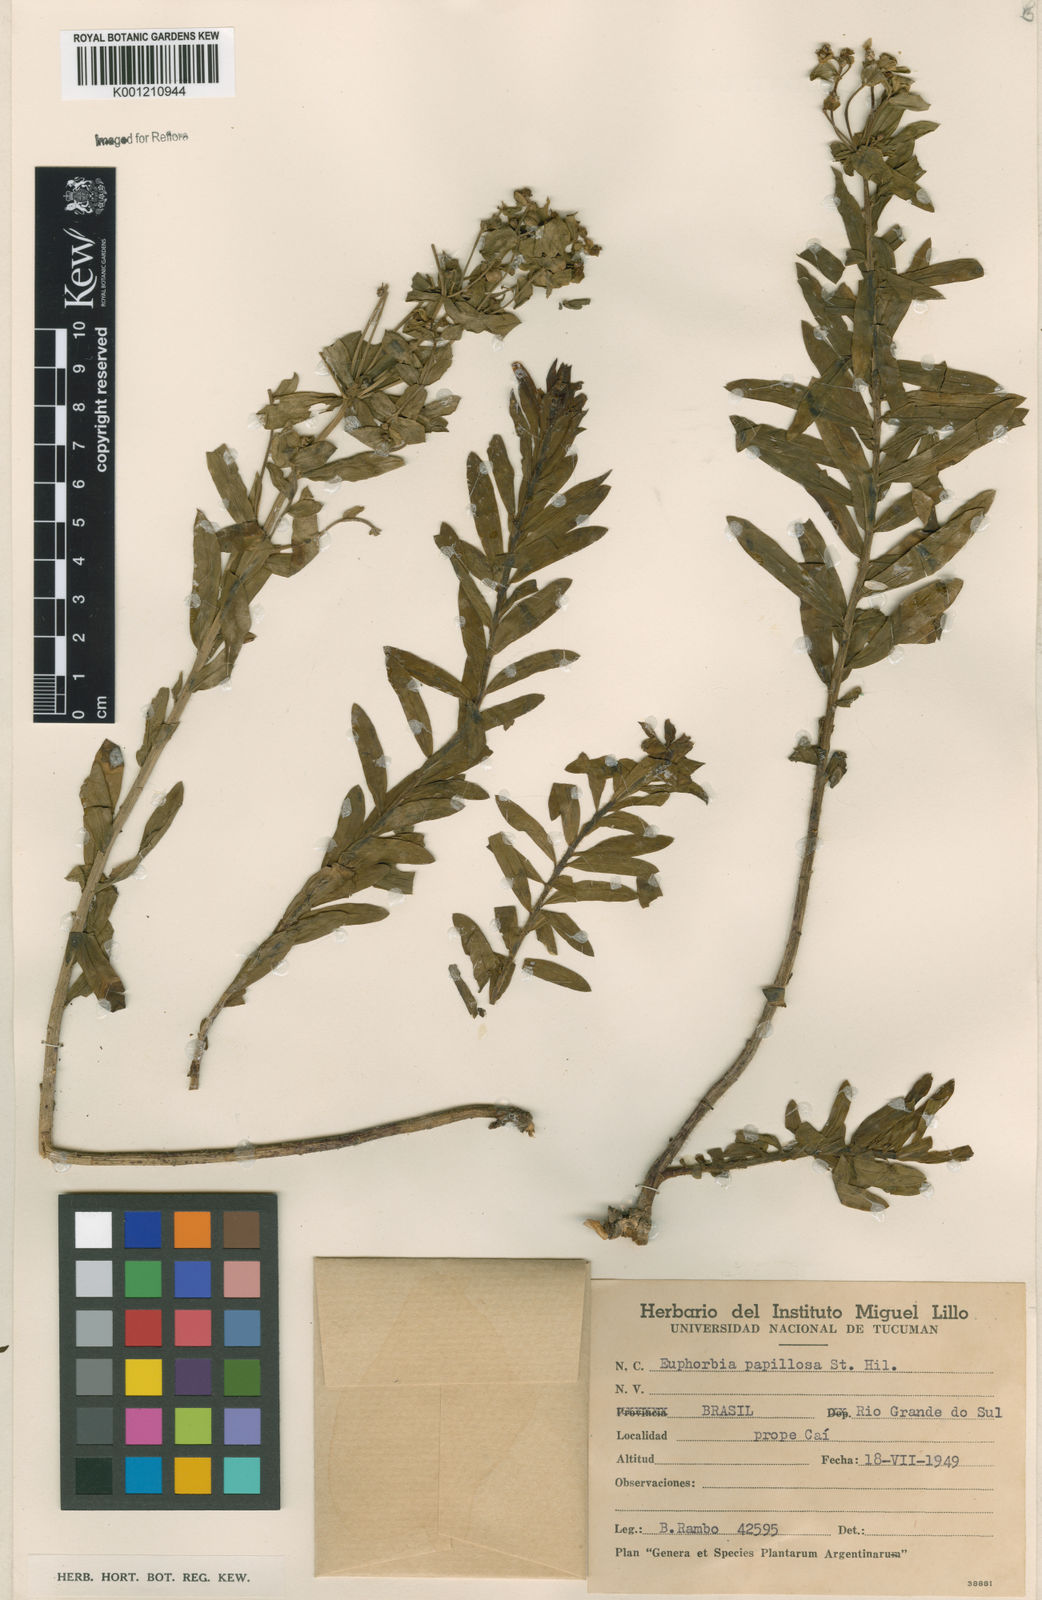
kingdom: Plantae
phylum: Tracheophyta
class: Magnoliopsida
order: Malpighiales
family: Euphorbiaceae
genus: Euphorbia
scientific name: Euphorbia papillosa
